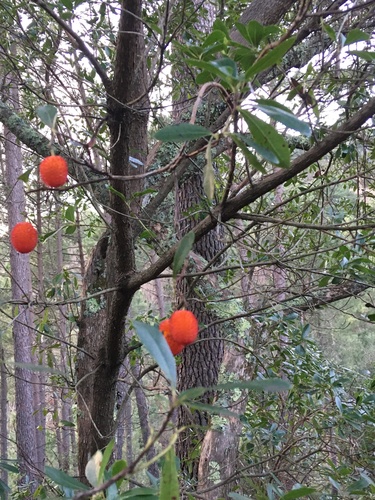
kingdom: Plantae
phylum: Tracheophyta
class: Magnoliopsida
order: Ericales
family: Ericaceae
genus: Arbutus
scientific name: Arbutus unedo
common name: Strawberry-tree
